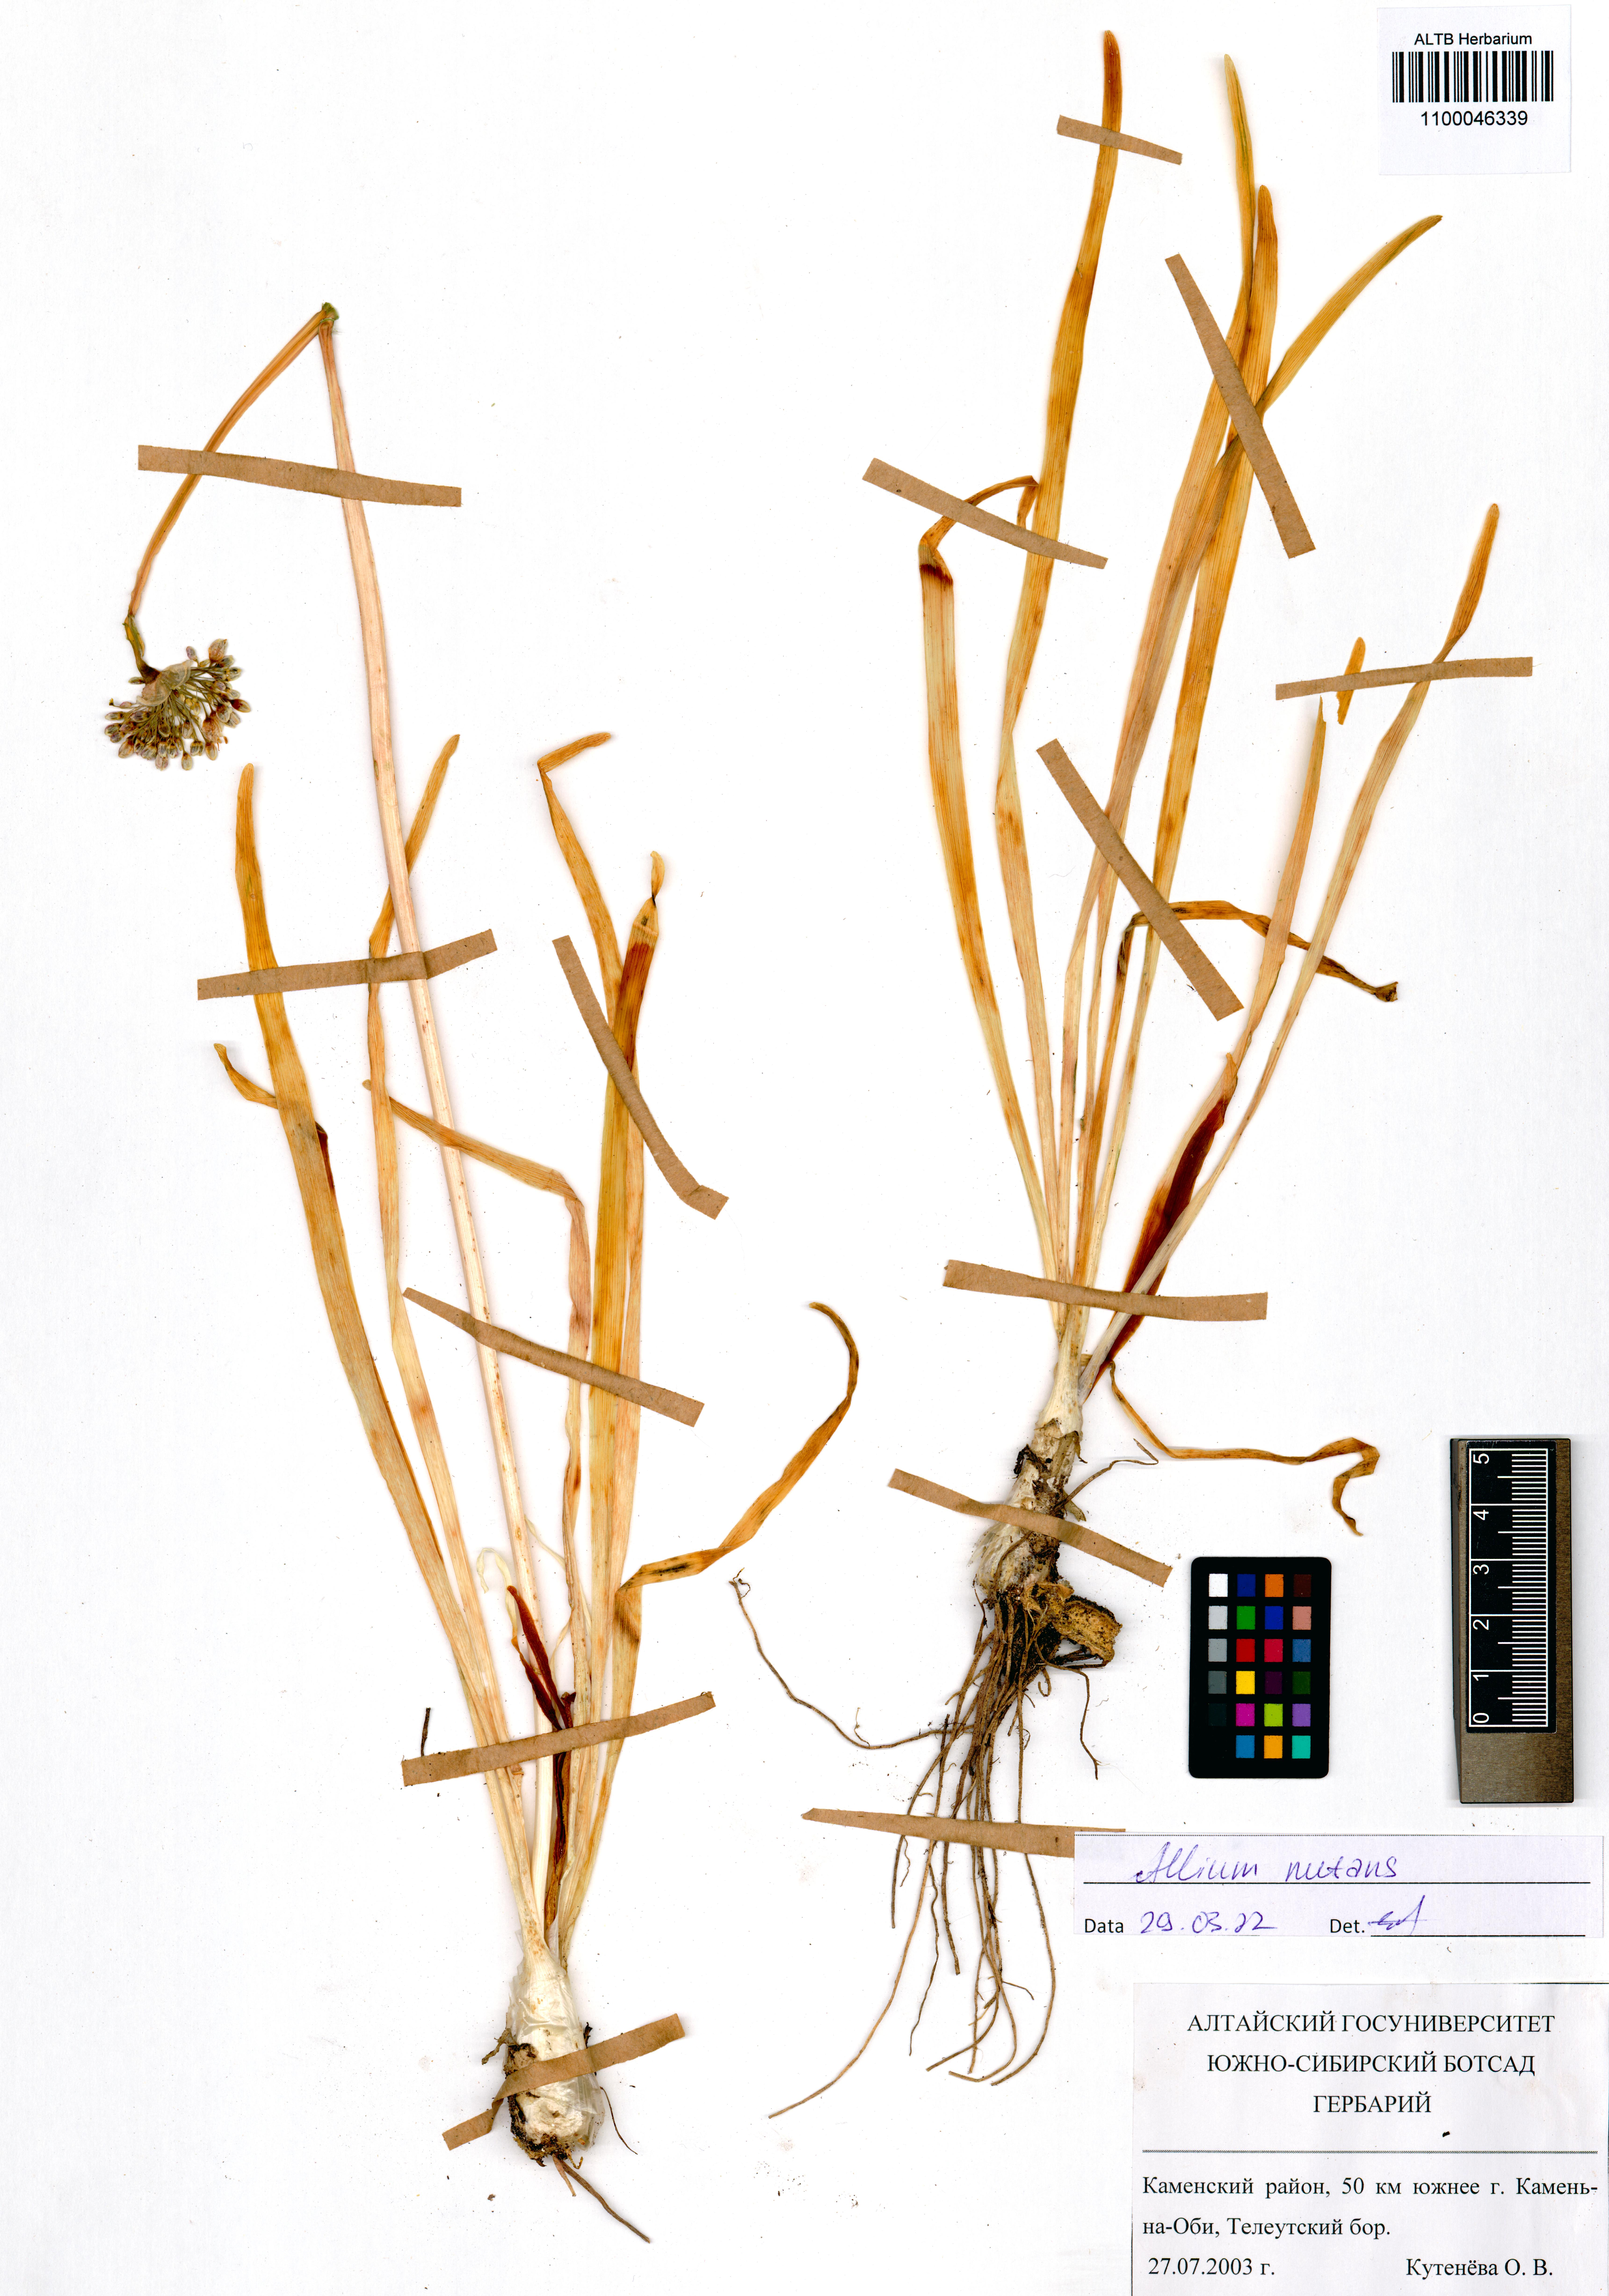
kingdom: Plantae
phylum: Tracheophyta
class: Liliopsida
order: Asparagales
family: Amaryllidaceae
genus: Allium
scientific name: Allium nutans
